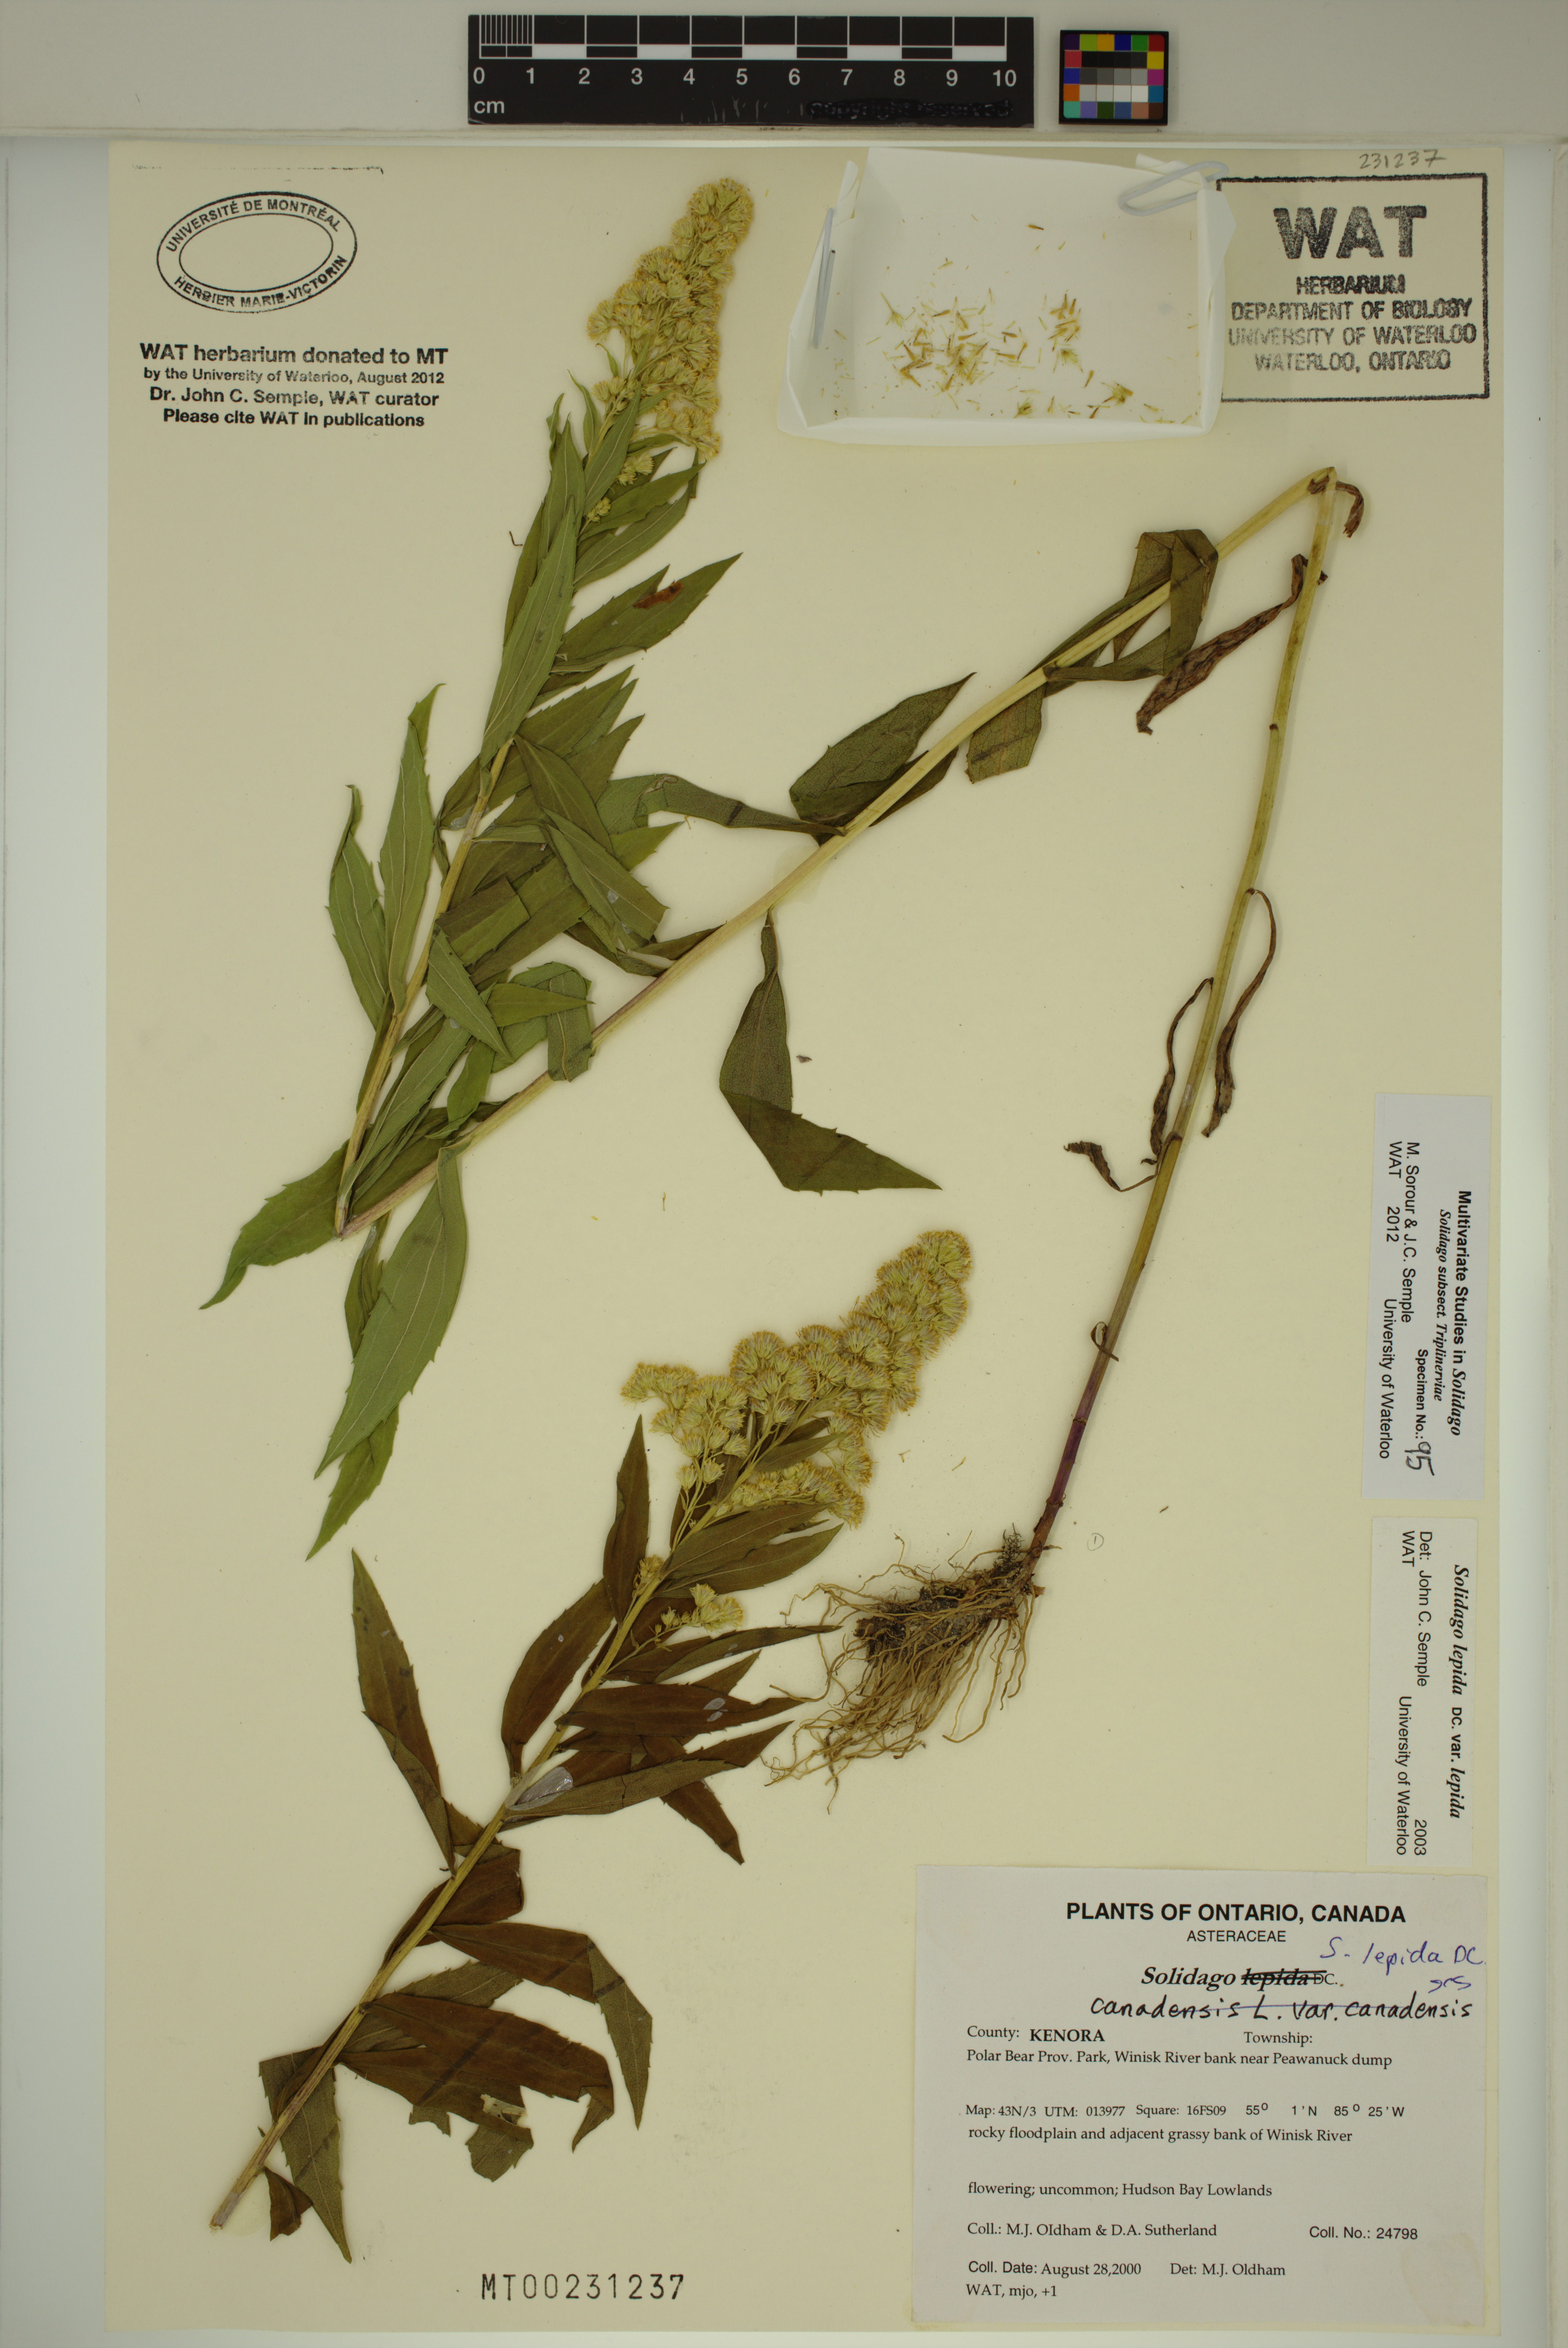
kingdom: Plantae
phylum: Tracheophyta
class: Magnoliopsida
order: Asterales
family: Asteraceae
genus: Solidago
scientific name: Solidago lepida
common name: Western canada goldenrod
